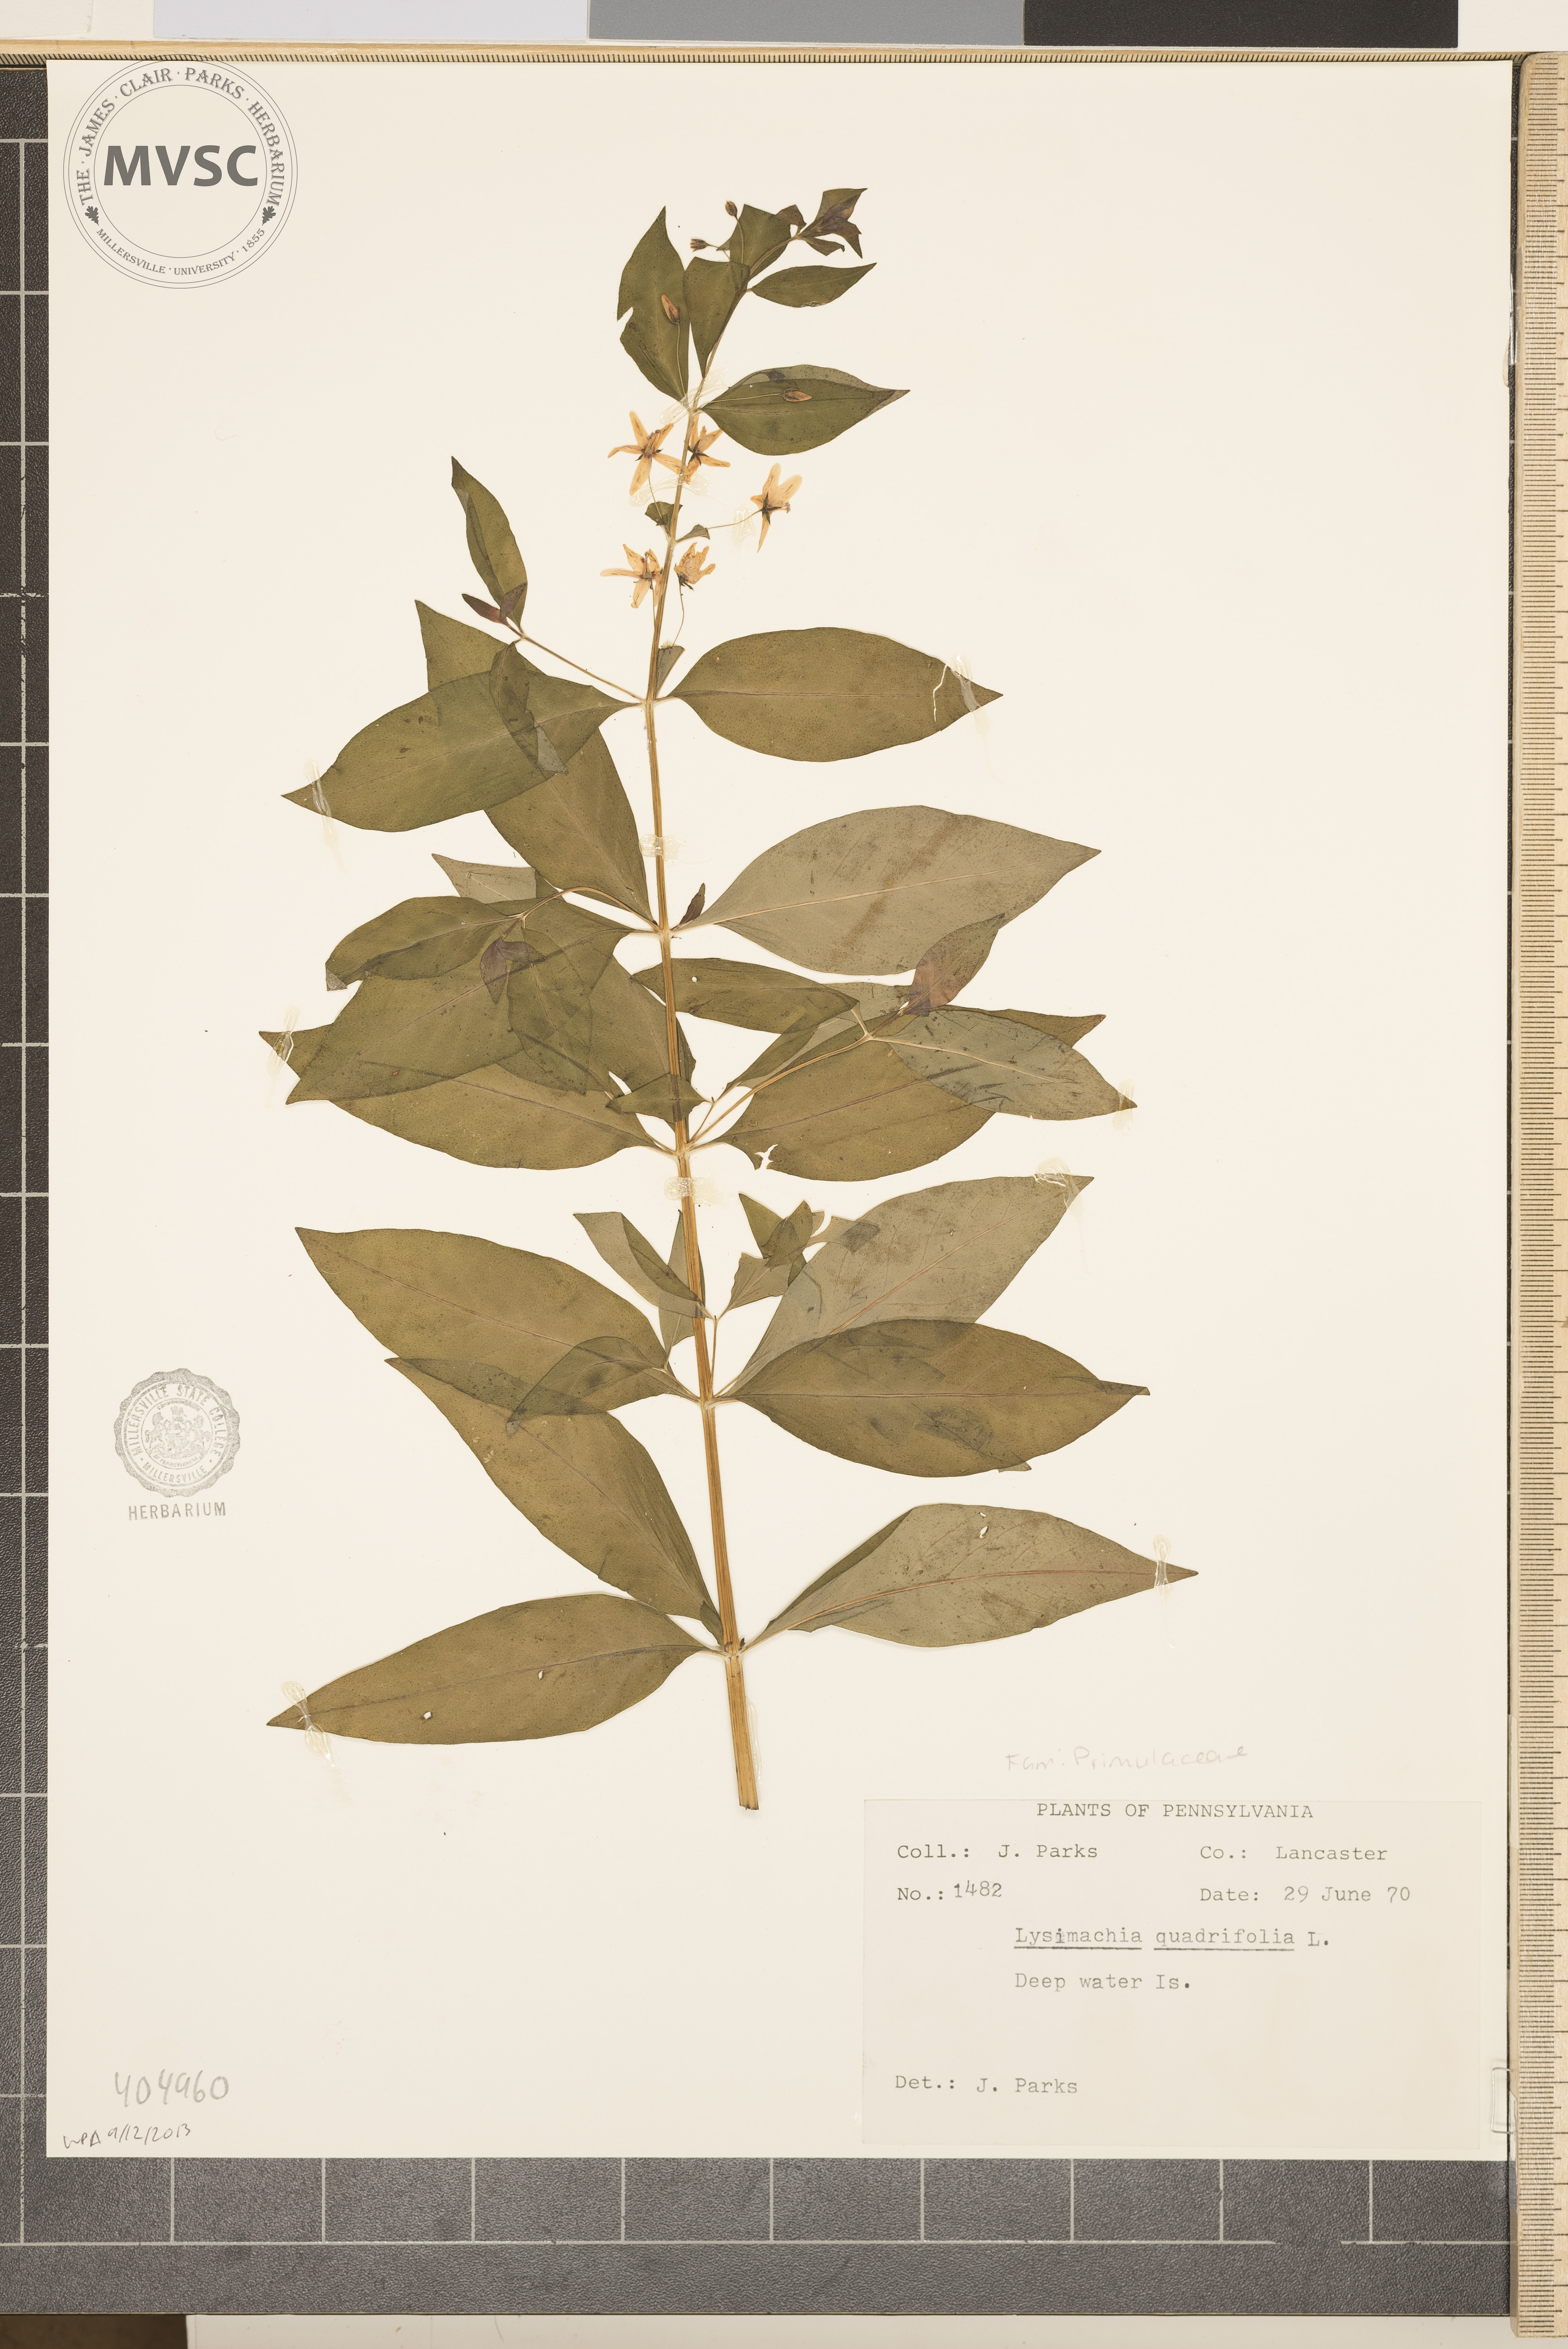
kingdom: Plantae
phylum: Tracheophyta
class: Magnoliopsida
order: Ericales
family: Primulaceae
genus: Lysimachia
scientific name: Lysimachia quadrifolia
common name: Whorled loosestrife
